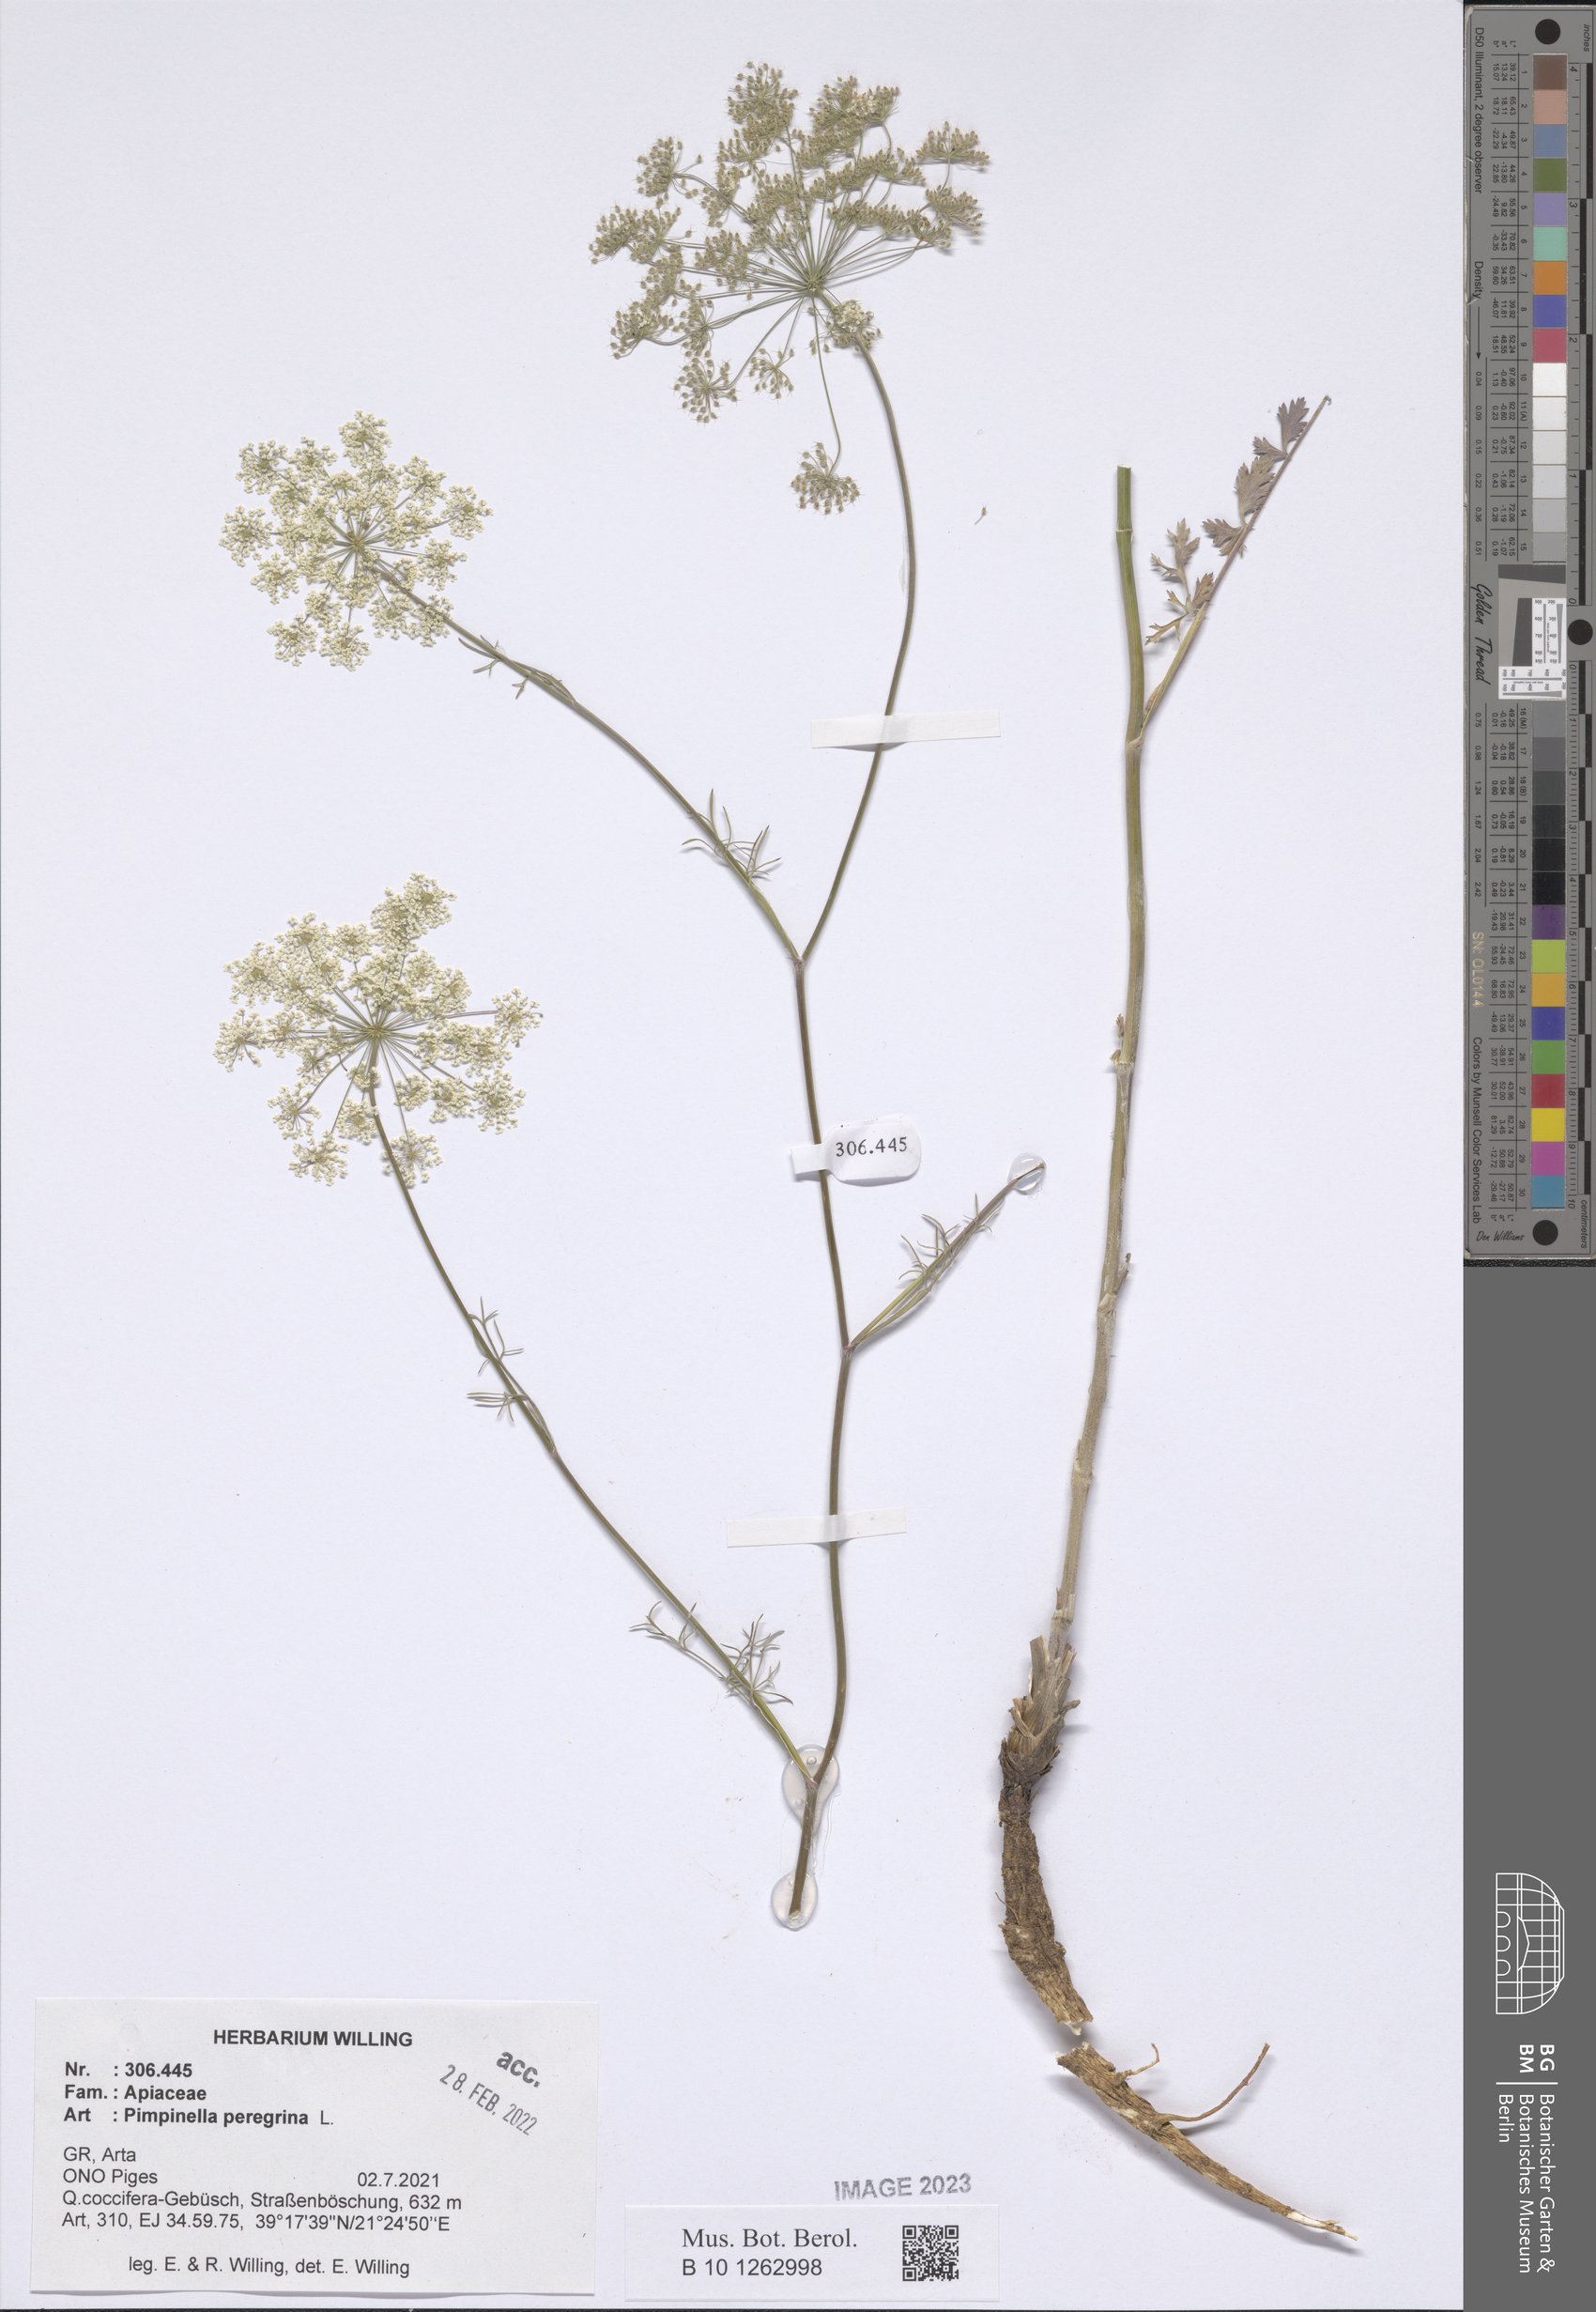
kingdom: Plantae
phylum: Tracheophyta
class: Magnoliopsida
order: Rosales
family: Rosaceae
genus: Potentilla
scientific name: Potentilla reptans
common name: Creeping cinquefoil
